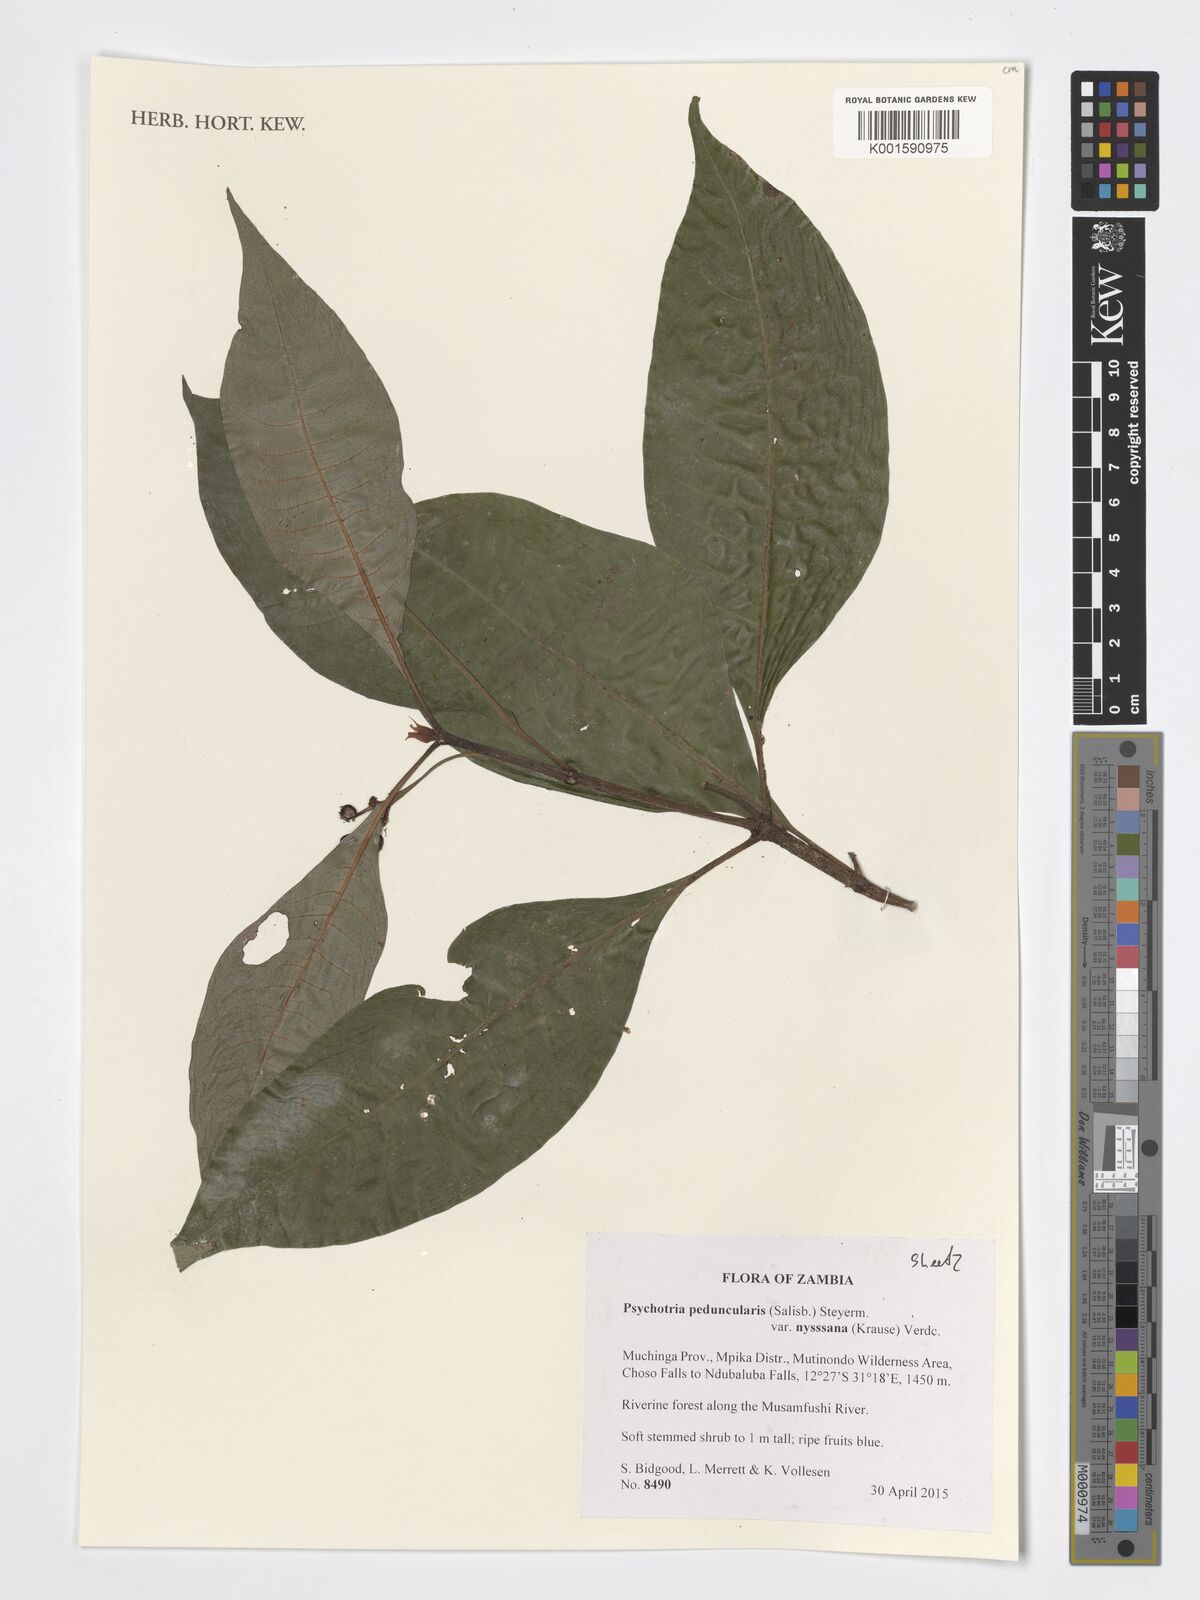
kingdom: Plantae
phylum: Tracheophyta
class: Magnoliopsida
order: Gentianales
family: Rubiaceae
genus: Psychotria
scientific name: Psychotria peduncularis
